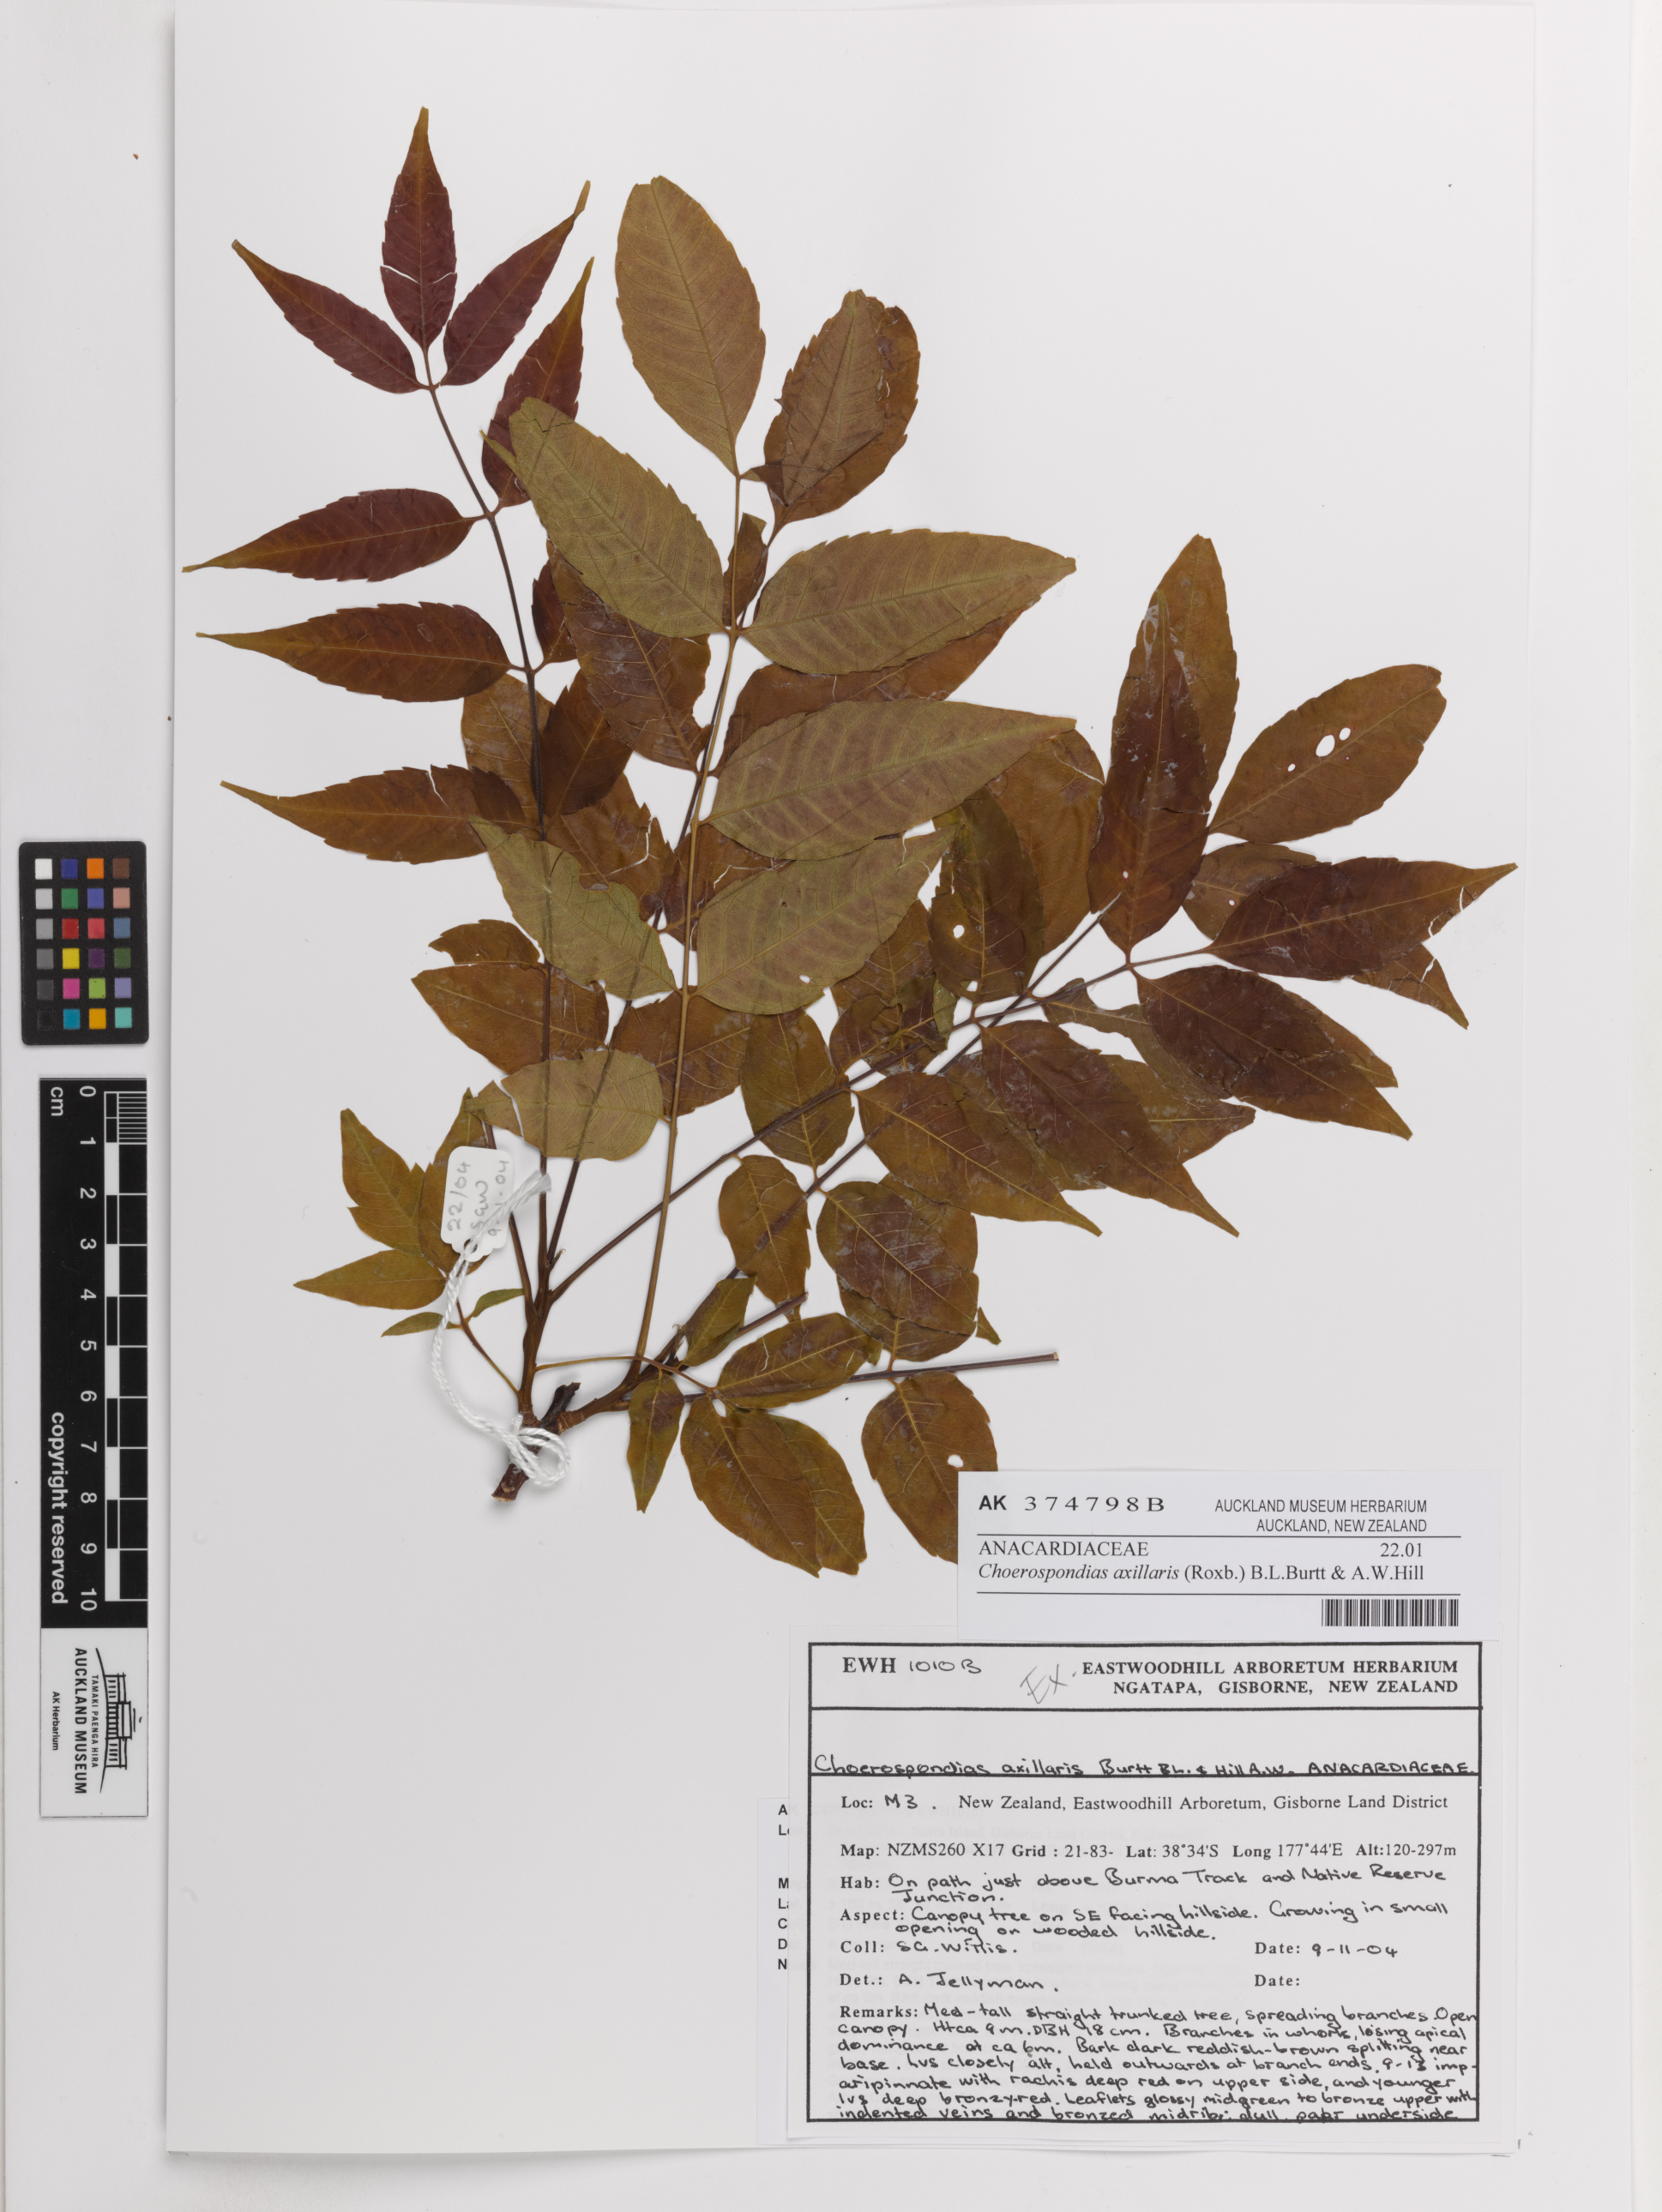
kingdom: Plantae
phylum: Tracheophyta
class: Magnoliopsida
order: Sapindales
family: Anacardiaceae
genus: Choerospondias
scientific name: Choerospondias axillaris
